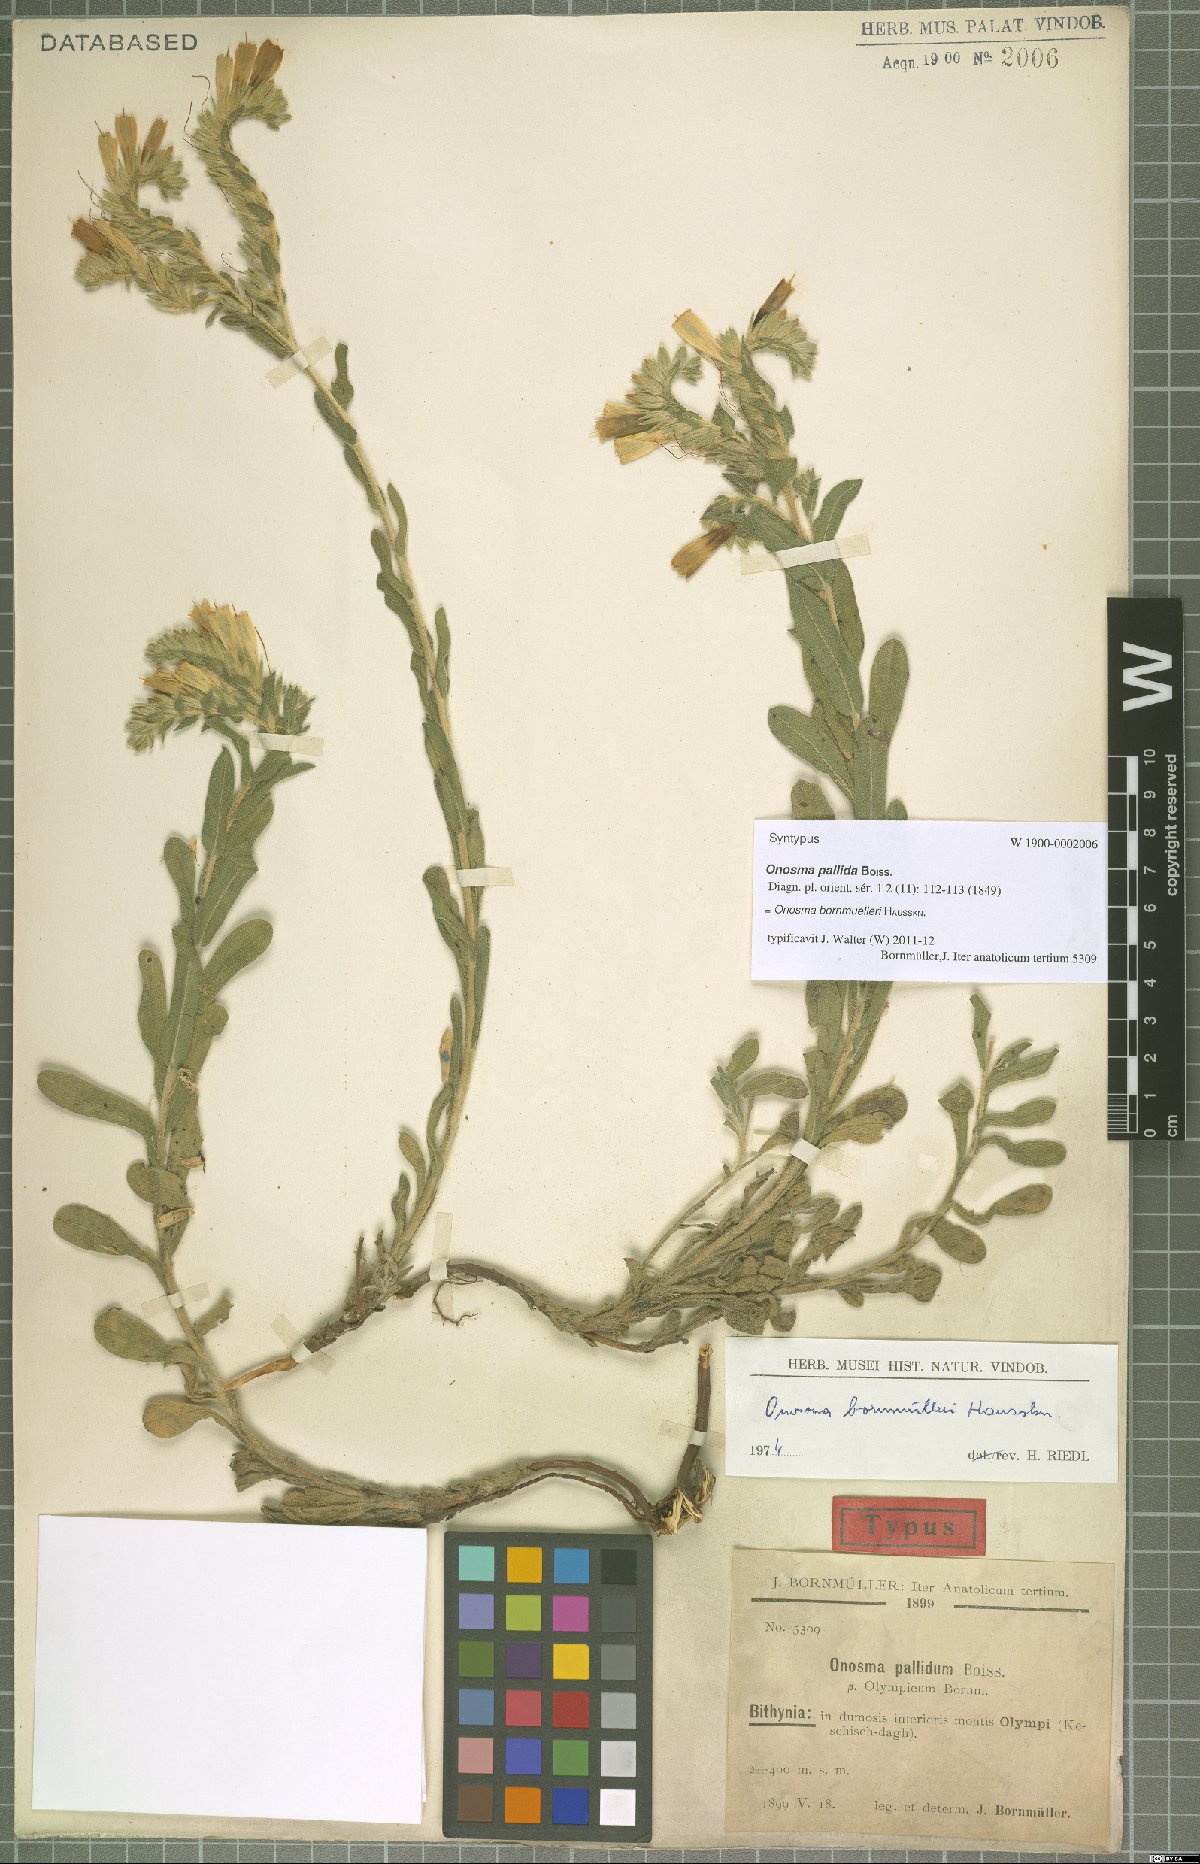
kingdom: Plantae
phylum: Tracheophyta
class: Magnoliopsida
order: Boraginales
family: Boraginaceae
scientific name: Boraginaceae
